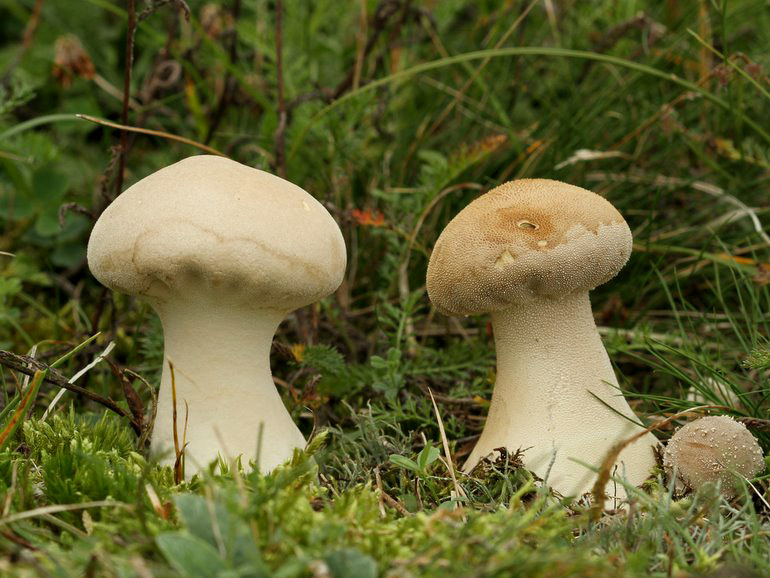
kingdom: Fungi
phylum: Basidiomycota
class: Agaricomycetes
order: Agaricales
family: Lycoperdaceae
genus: Lycoperdon
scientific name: Lycoperdon excipuliforme
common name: højstokket støvbold
